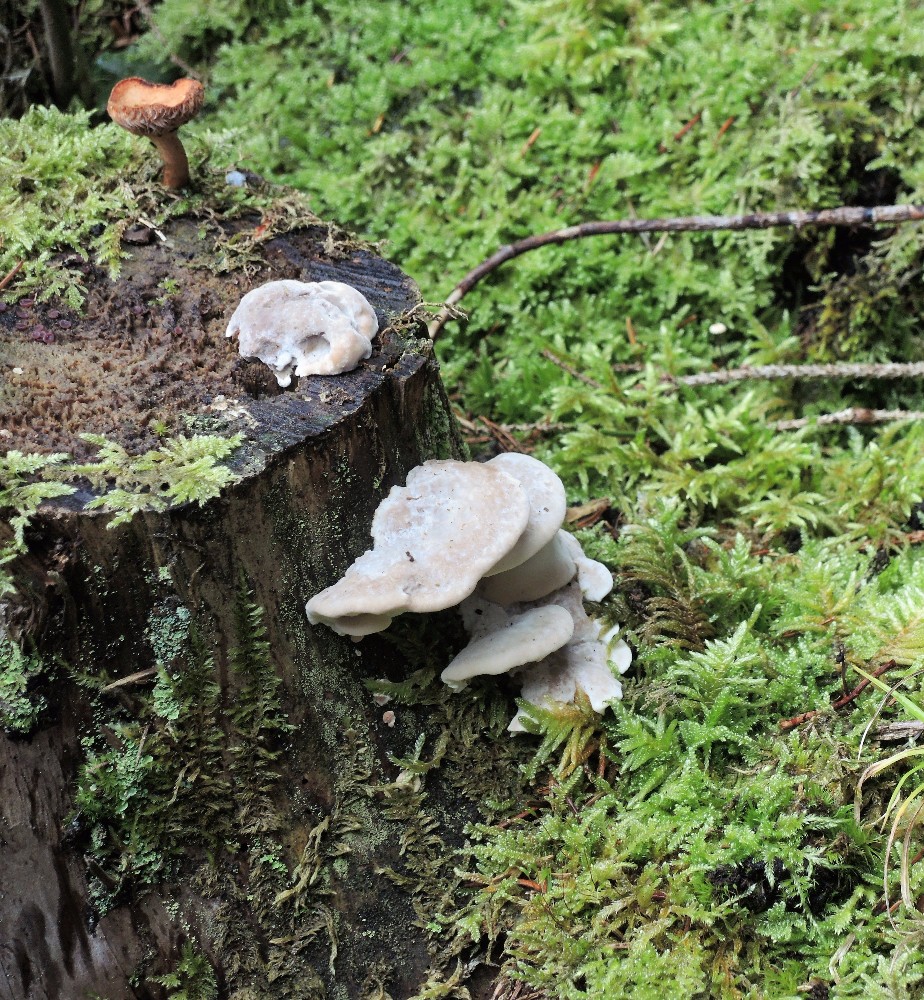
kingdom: Fungi
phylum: Basidiomycota
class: Agaricomycetes
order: Polyporales
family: Incrustoporiaceae
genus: Tyromyces
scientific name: Tyromyces lacteus
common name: mælkehvid kødporesvamp
